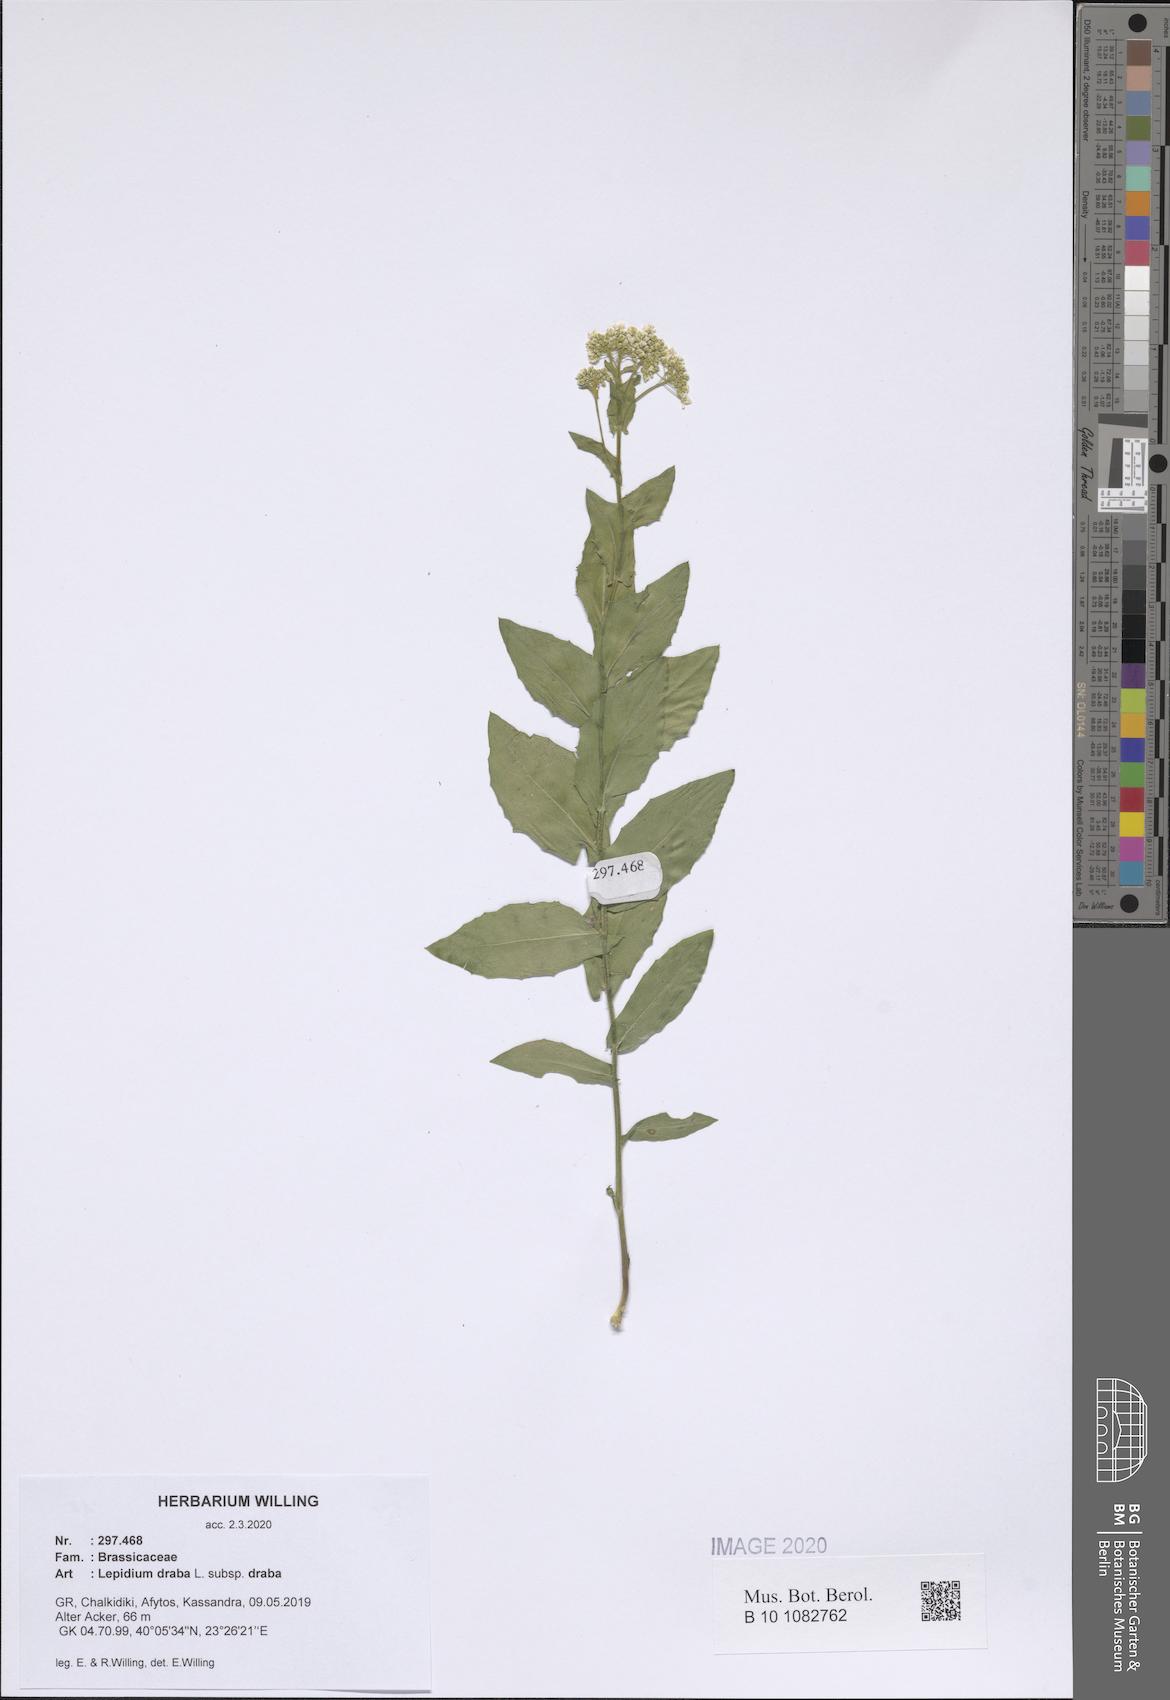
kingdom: Plantae
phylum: Tracheophyta
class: Magnoliopsida
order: Brassicales
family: Brassicaceae
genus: Lepidium
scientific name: Lepidium draba
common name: Hoary cress
